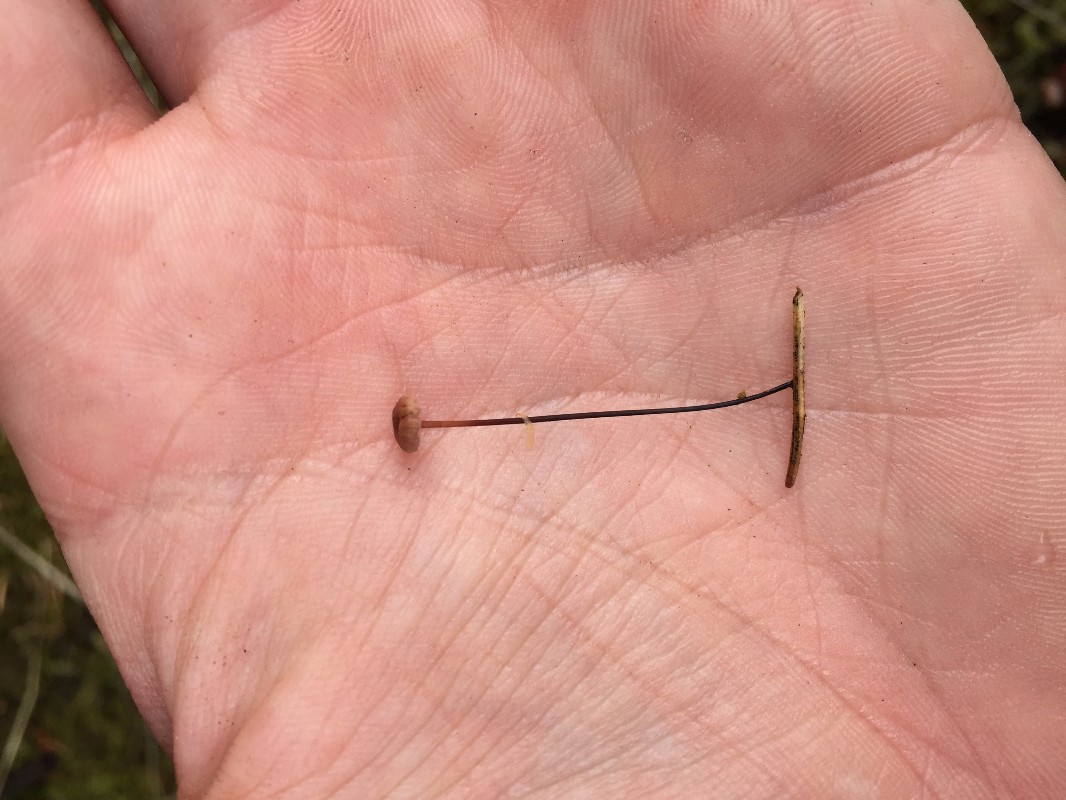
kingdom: Fungi
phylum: Basidiomycota
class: Agaricomycetes
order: Agaricales
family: Omphalotaceae
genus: Gymnopus
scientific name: Gymnopus androsaceus
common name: trådstokket fladhat
